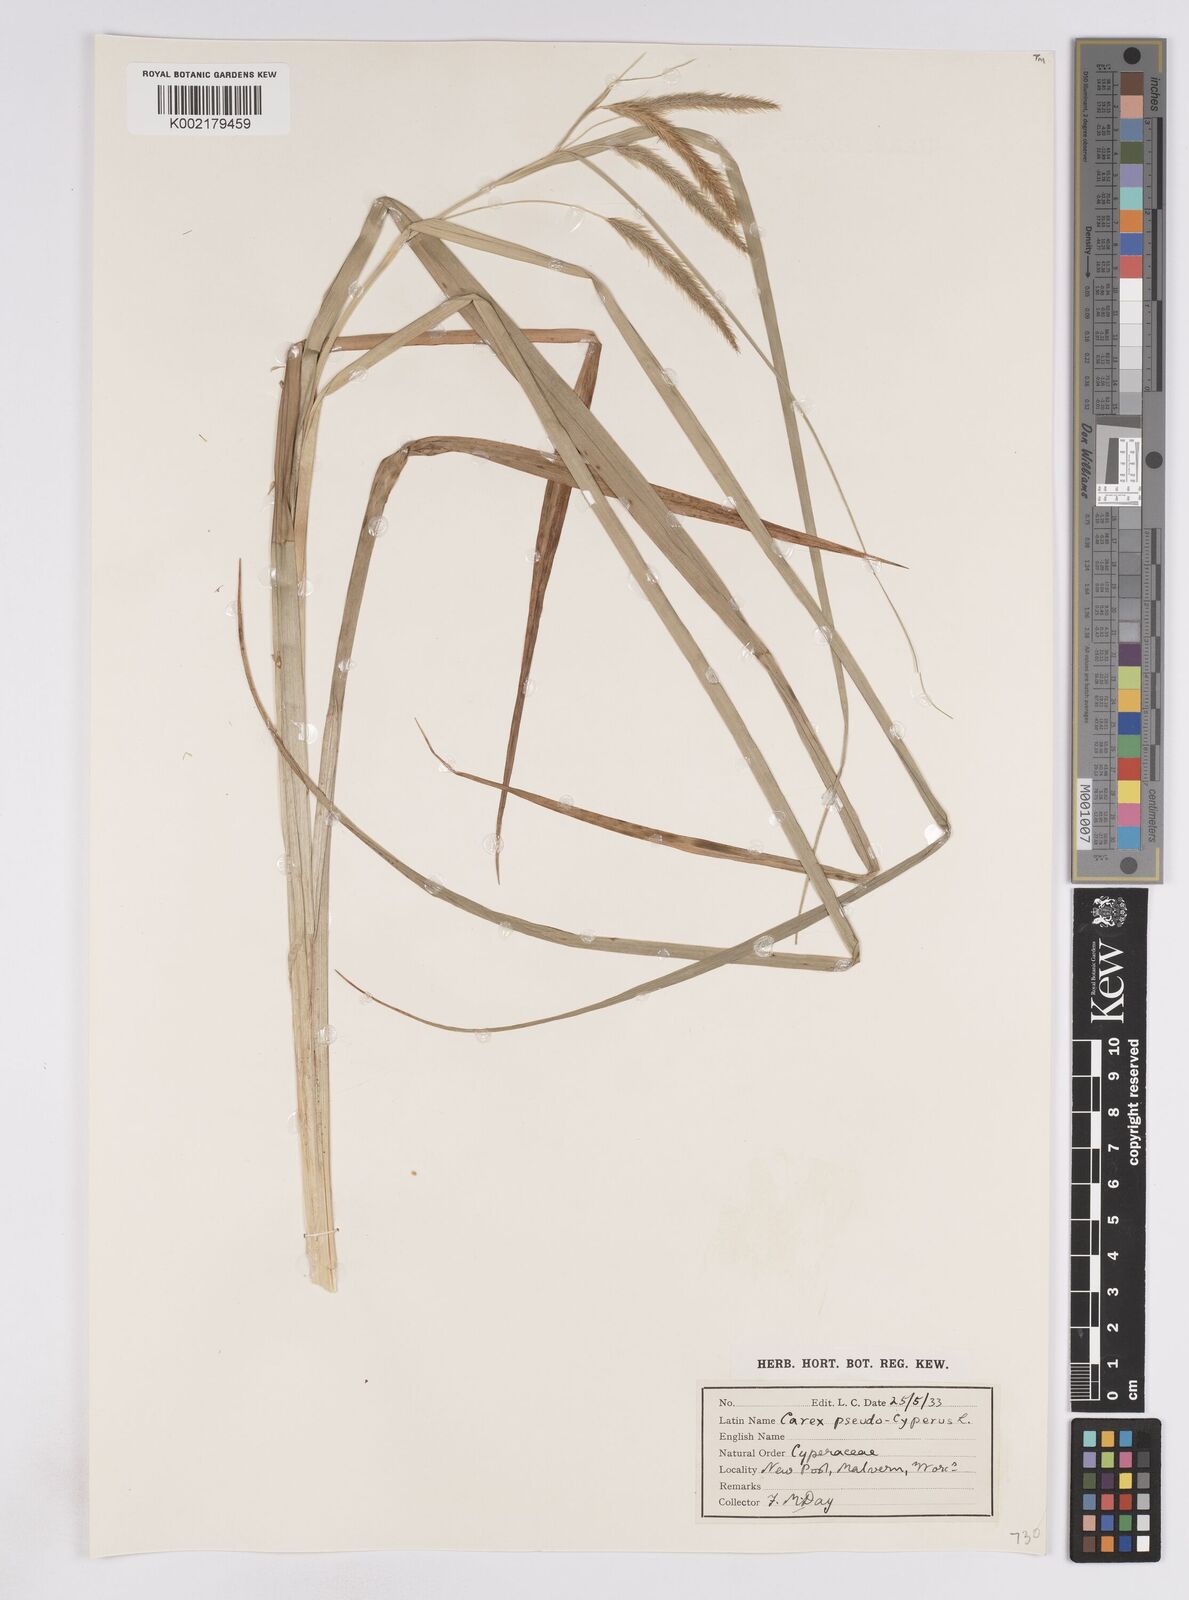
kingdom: Plantae
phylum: Tracheophyta
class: Liliopsida
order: Poales
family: Cyperaceae
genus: Carex
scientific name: Carex pseudocyperus
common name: Cyperus sedge
